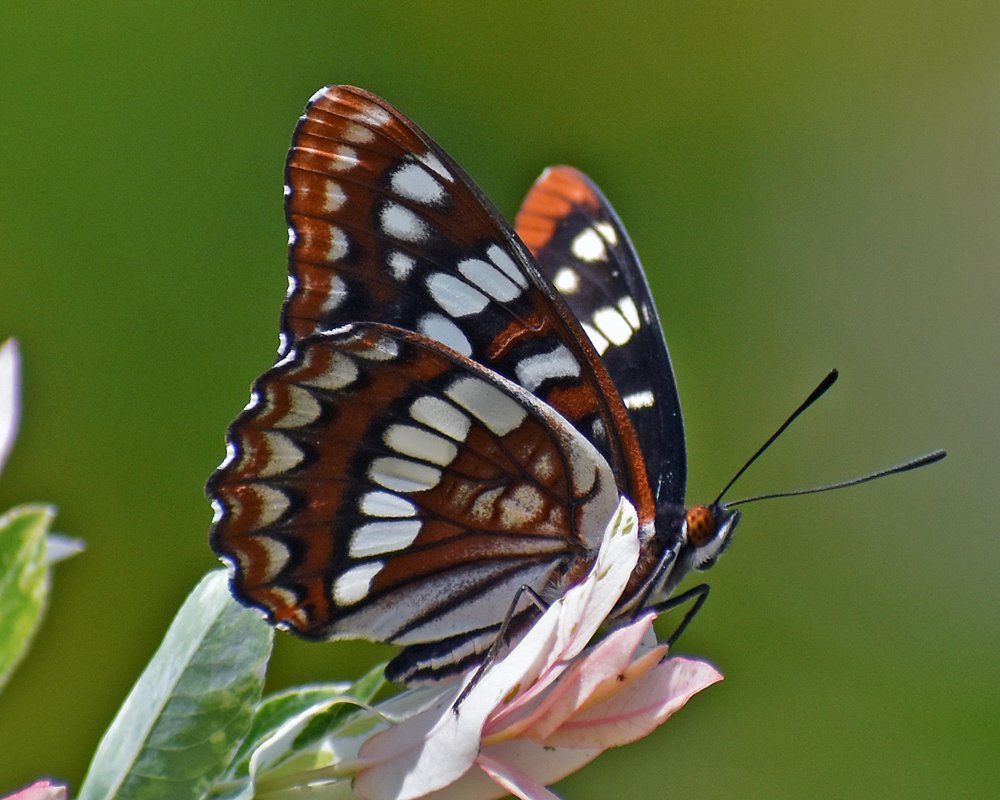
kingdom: Animalia
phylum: Arthropoda
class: Insecta
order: Lepidoptera
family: Nymphalidae
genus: Limenitis
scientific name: Limenitis lorquini
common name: Lorquin's Admiral
